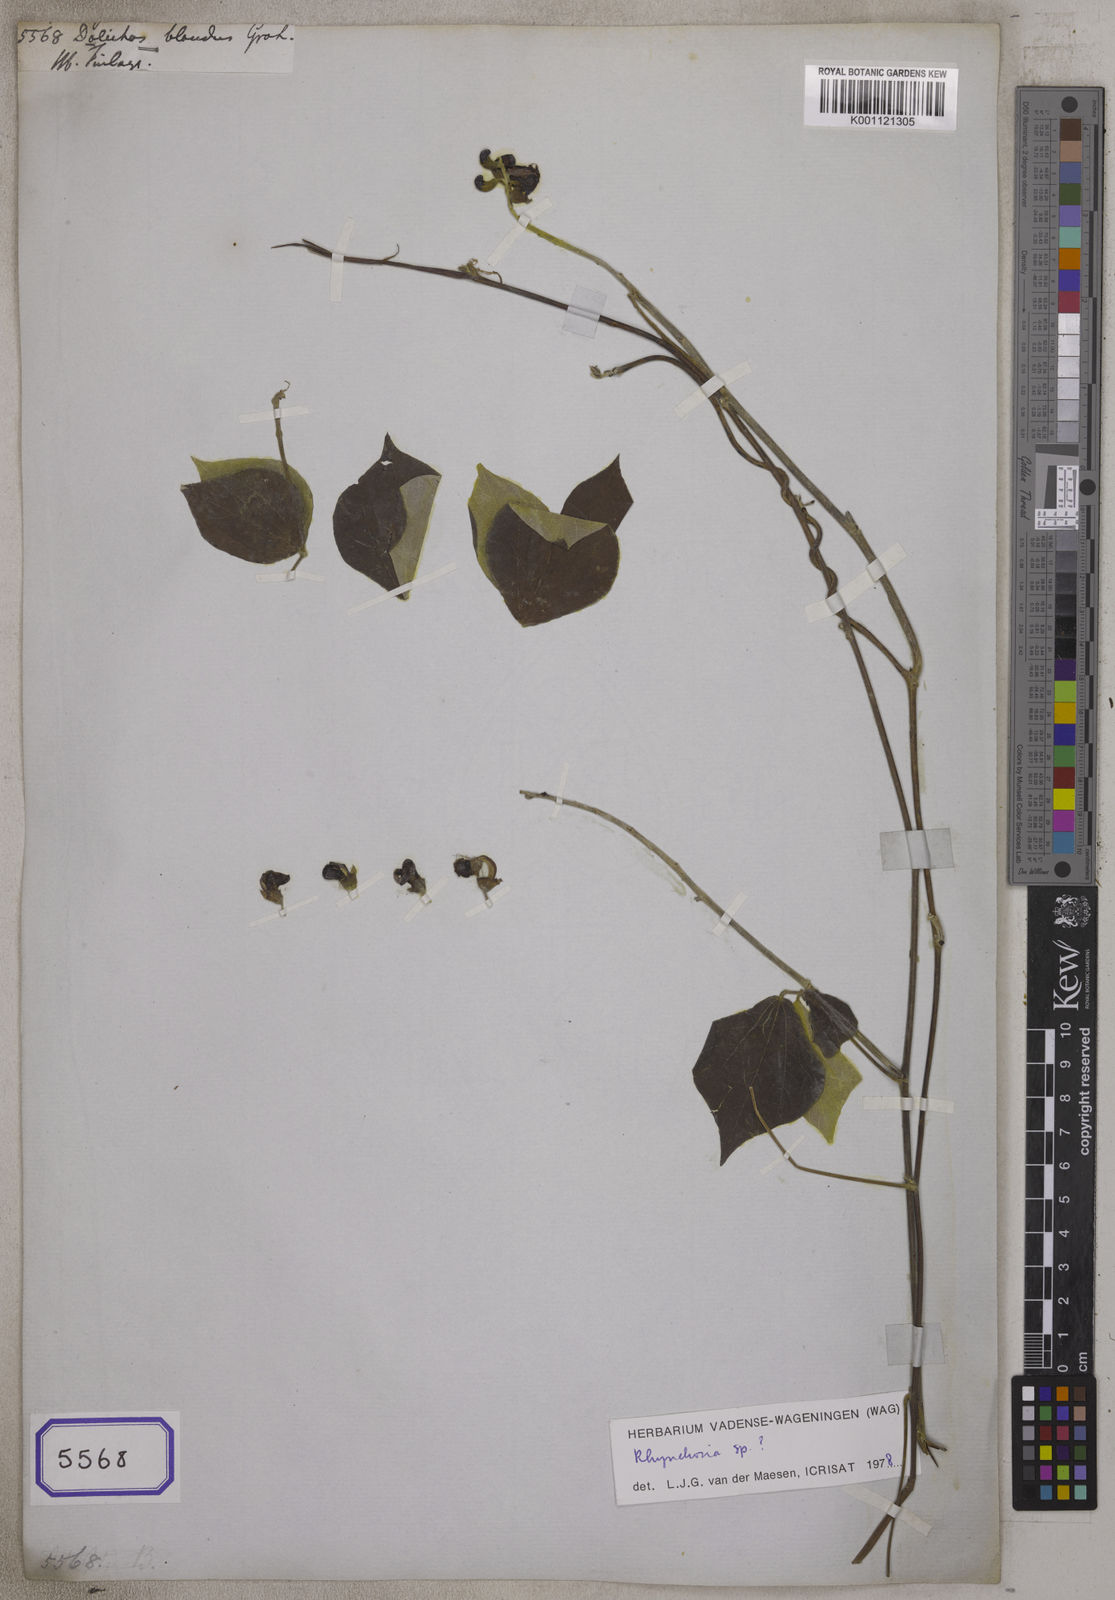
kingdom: Plantae
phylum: Tracheophyta
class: Magnoliopsida
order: Fabales
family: Fabaceae
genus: Cajanus
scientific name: Cajanus mollis
